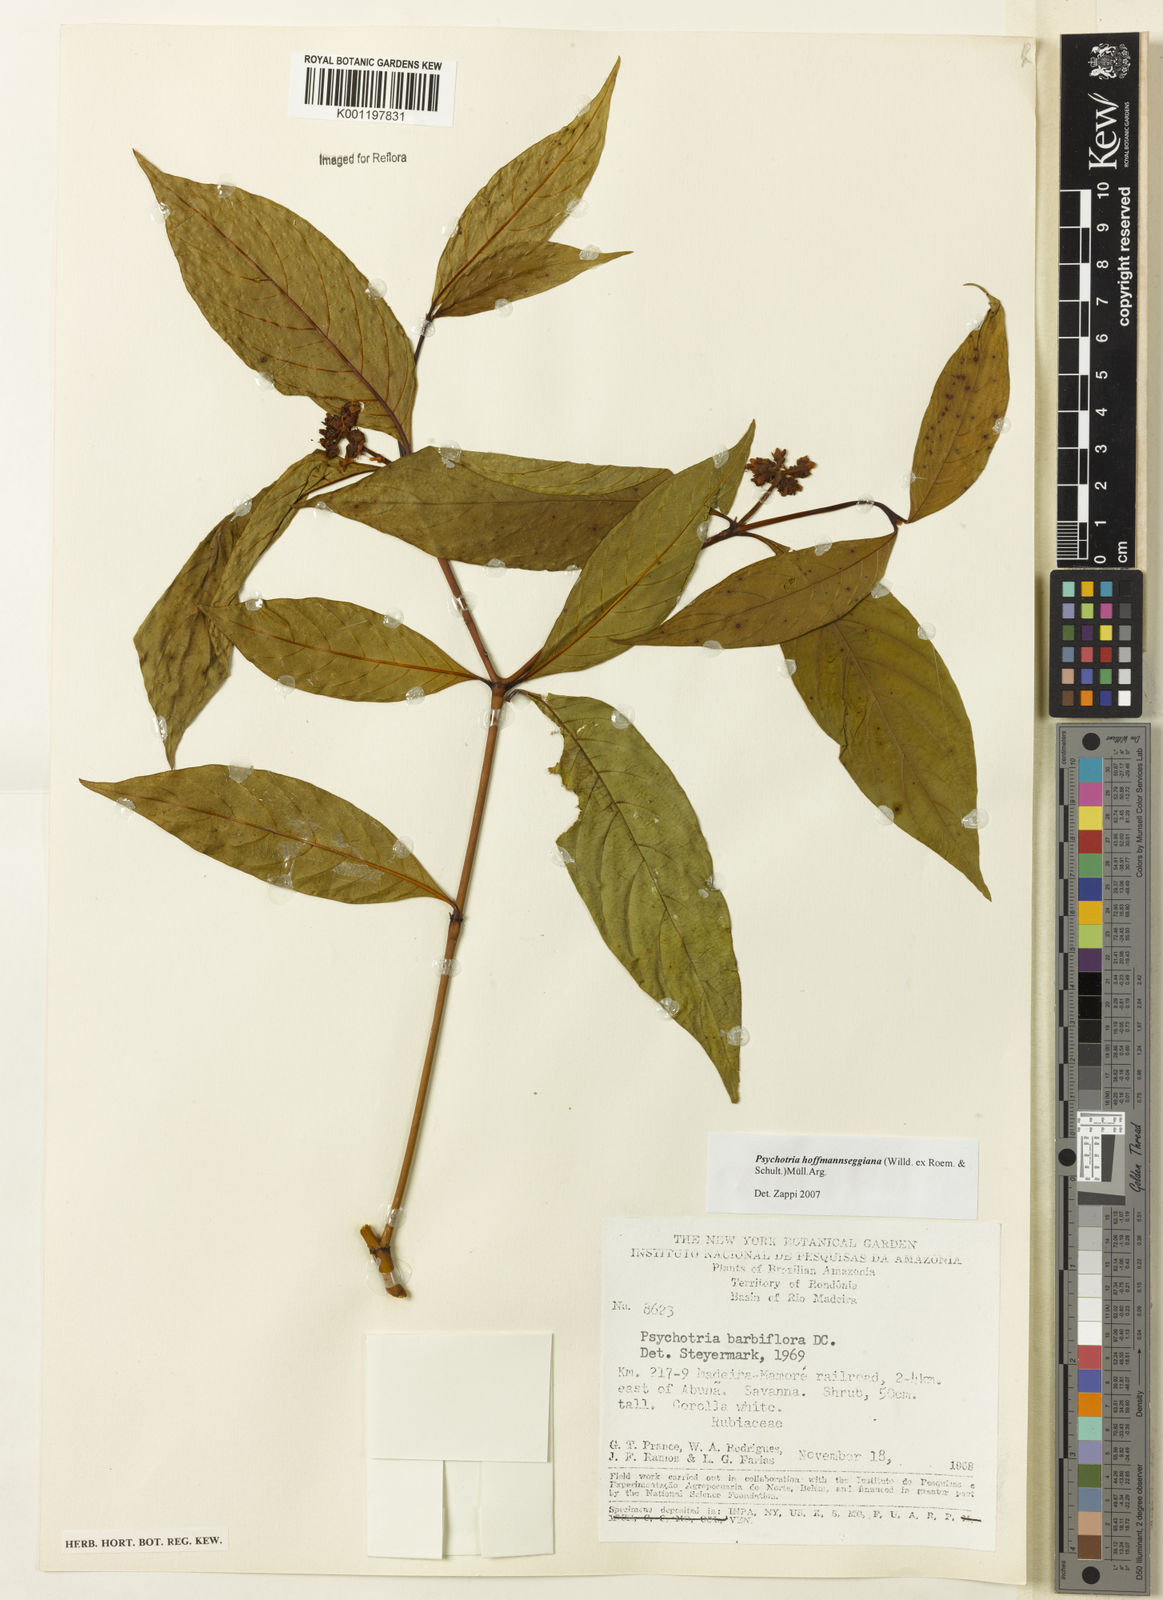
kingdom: Plantae
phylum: Tracheophyta
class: Magnoliopsida
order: Gentianales
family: Rubiaceae
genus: Psychotria
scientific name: Psychotria
